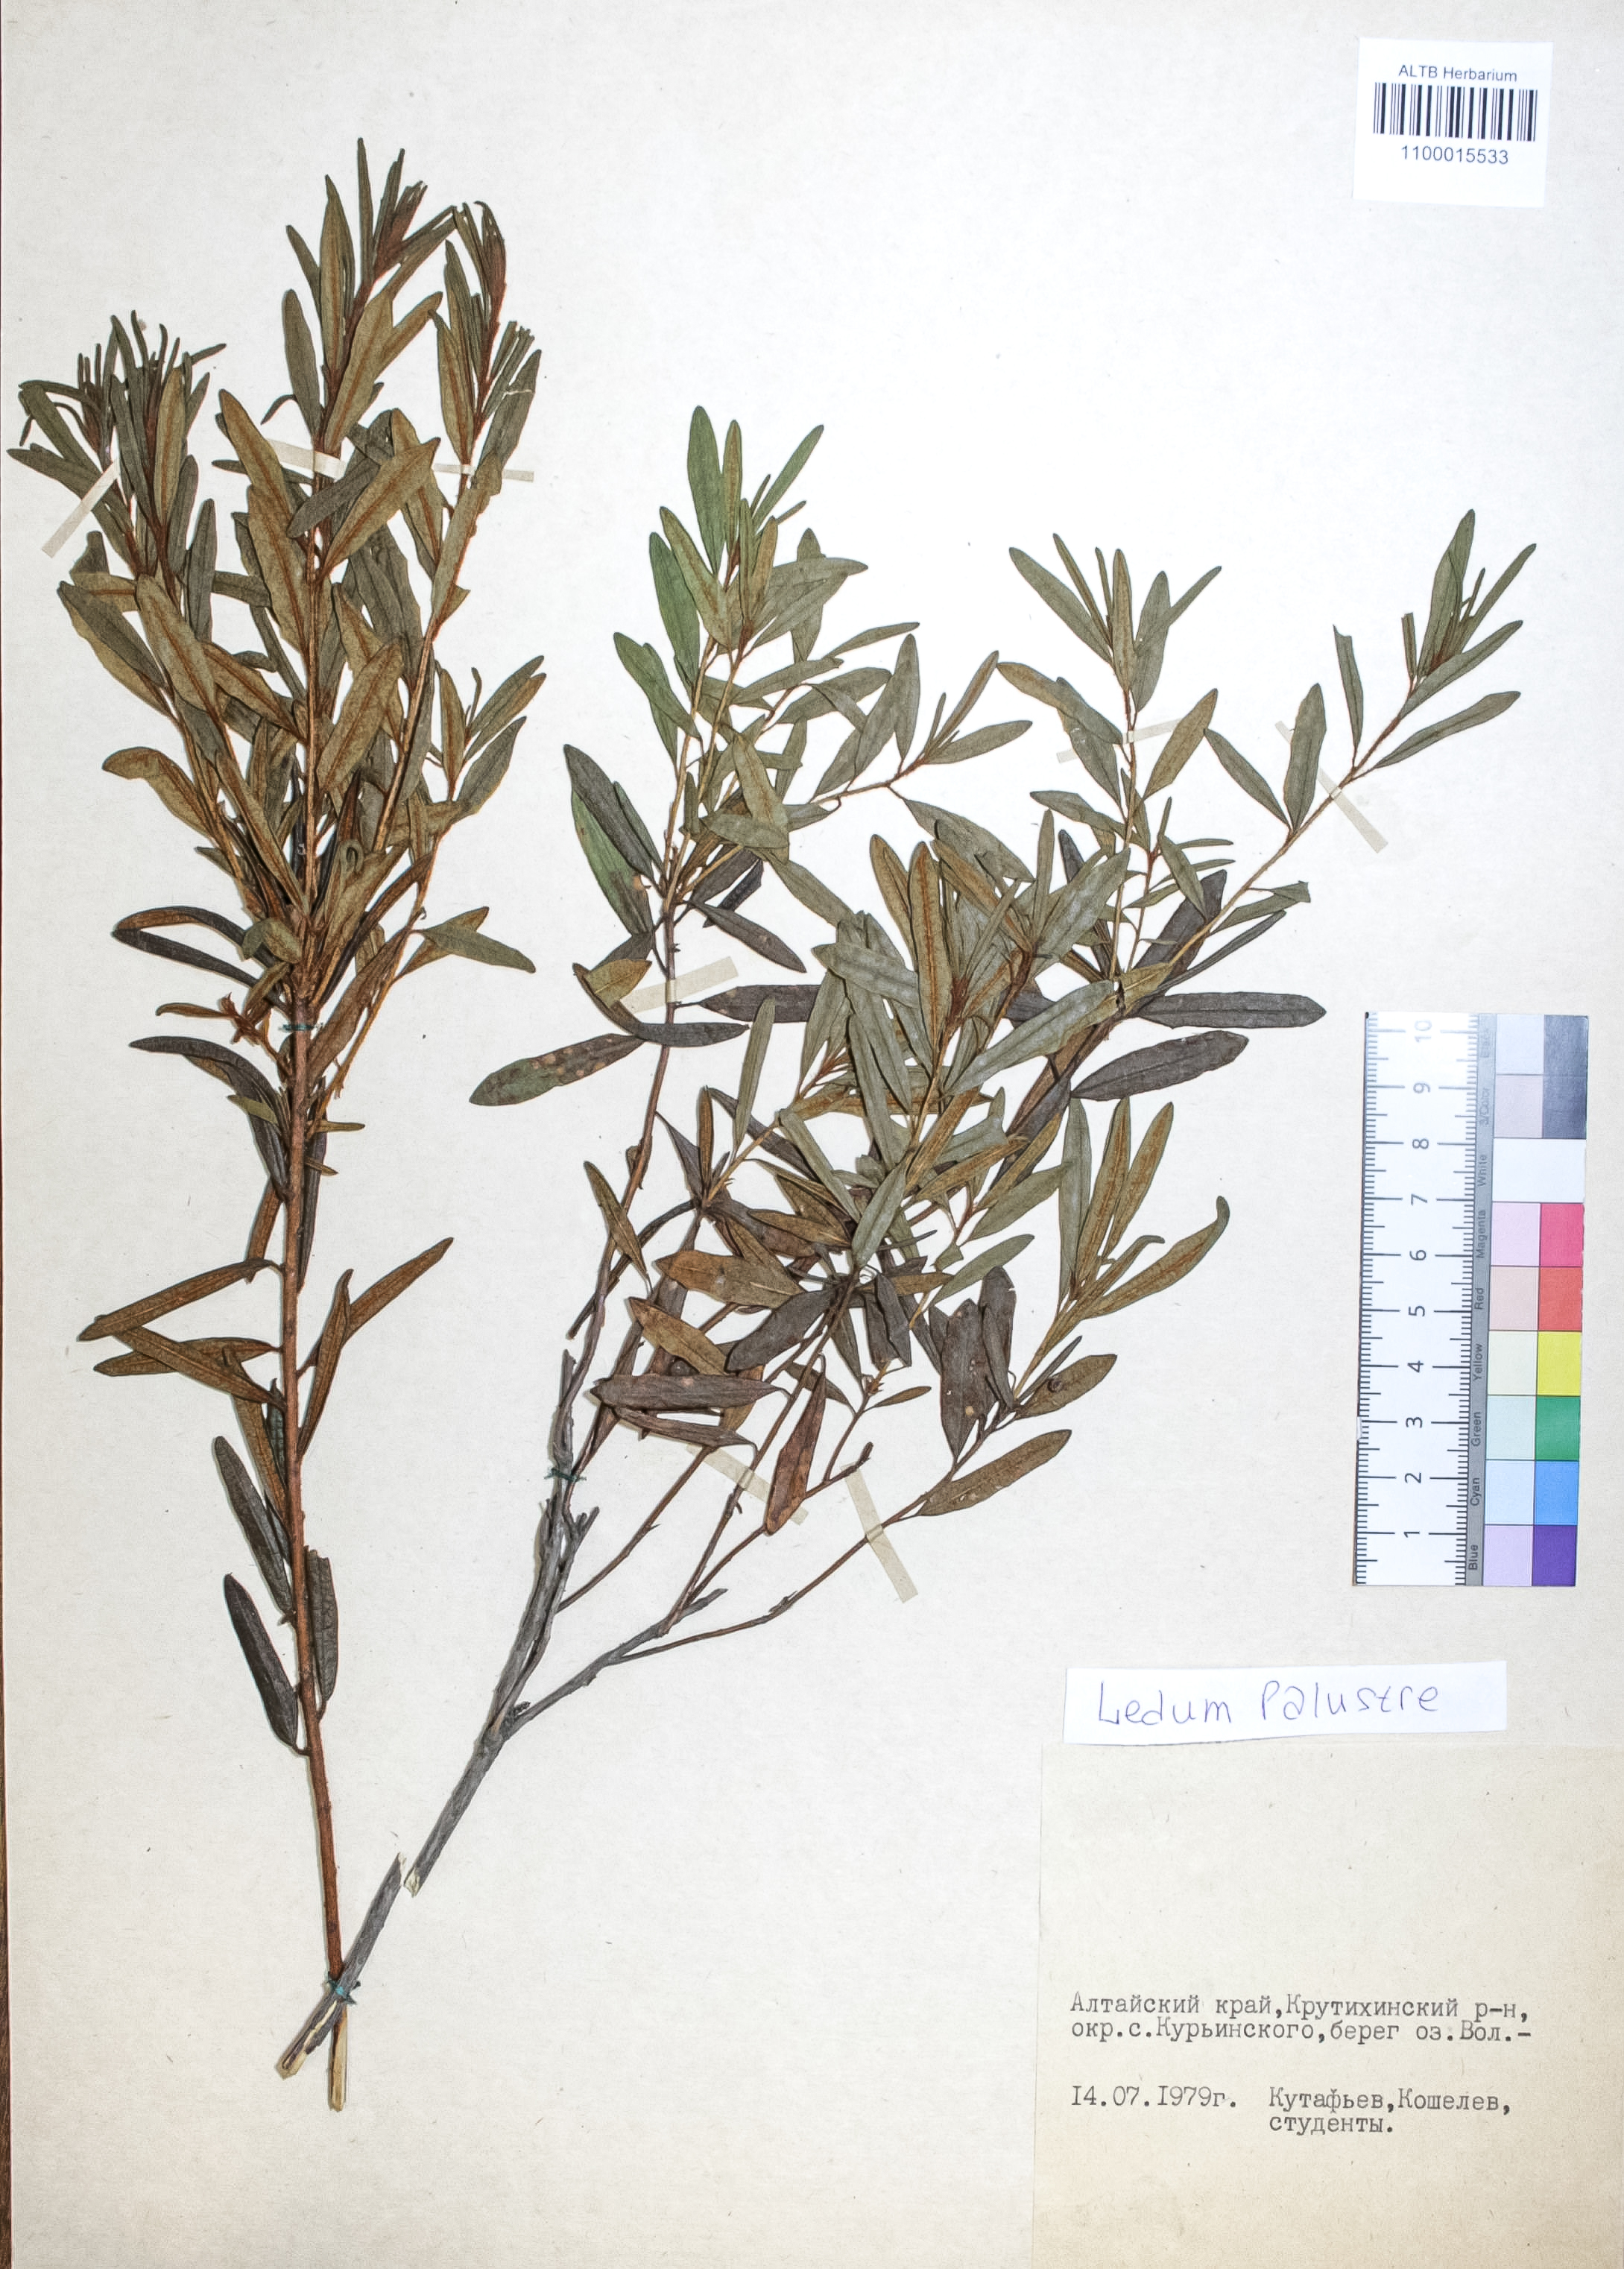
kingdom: Plantae
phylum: Tracheophyta
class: Magnoliopsida
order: Ericales
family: Ericaceae
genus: Rhododendron
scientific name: Rhododendron tomentosum
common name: Marsh labrador tea
